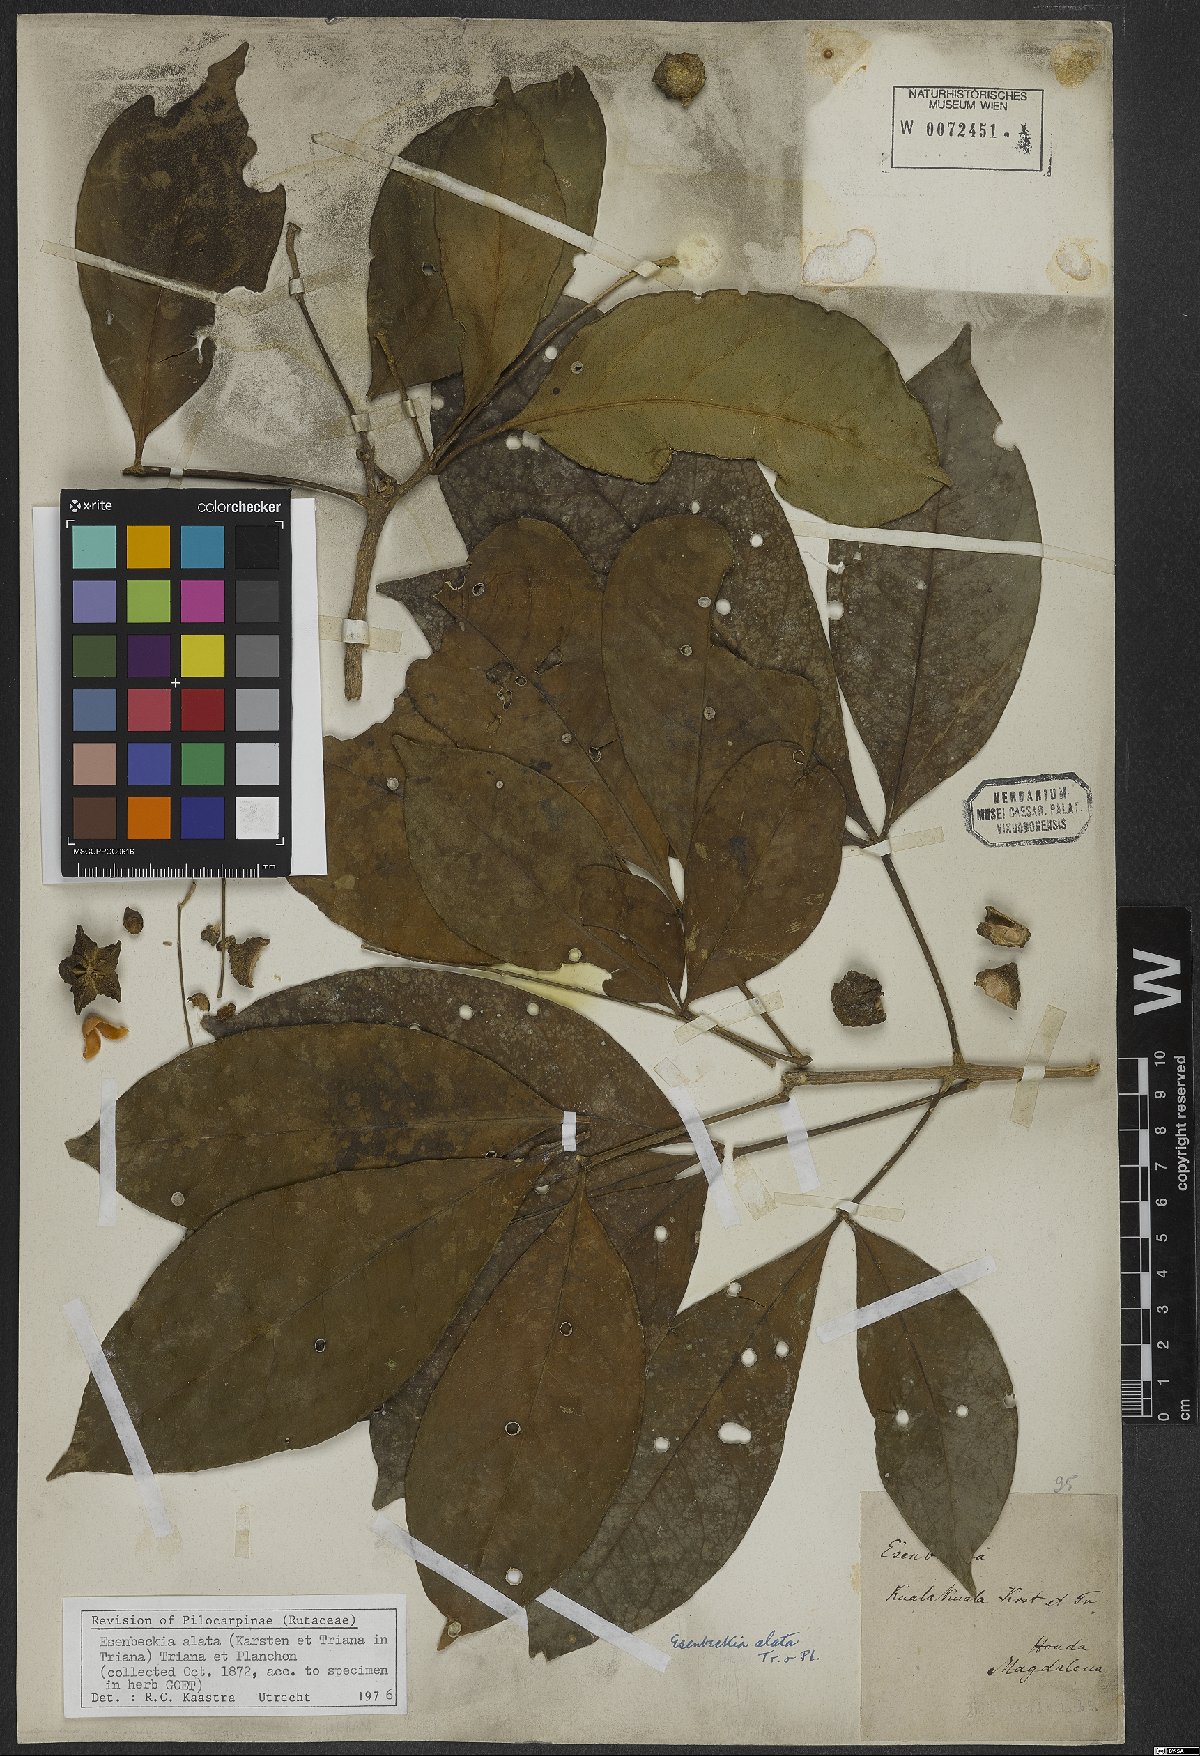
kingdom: Plantae
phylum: Tracheophyta
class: Magnoliopsida
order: Sapindales
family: Rutaceae
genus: Esenbeckia
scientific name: Esenbeckia alata
